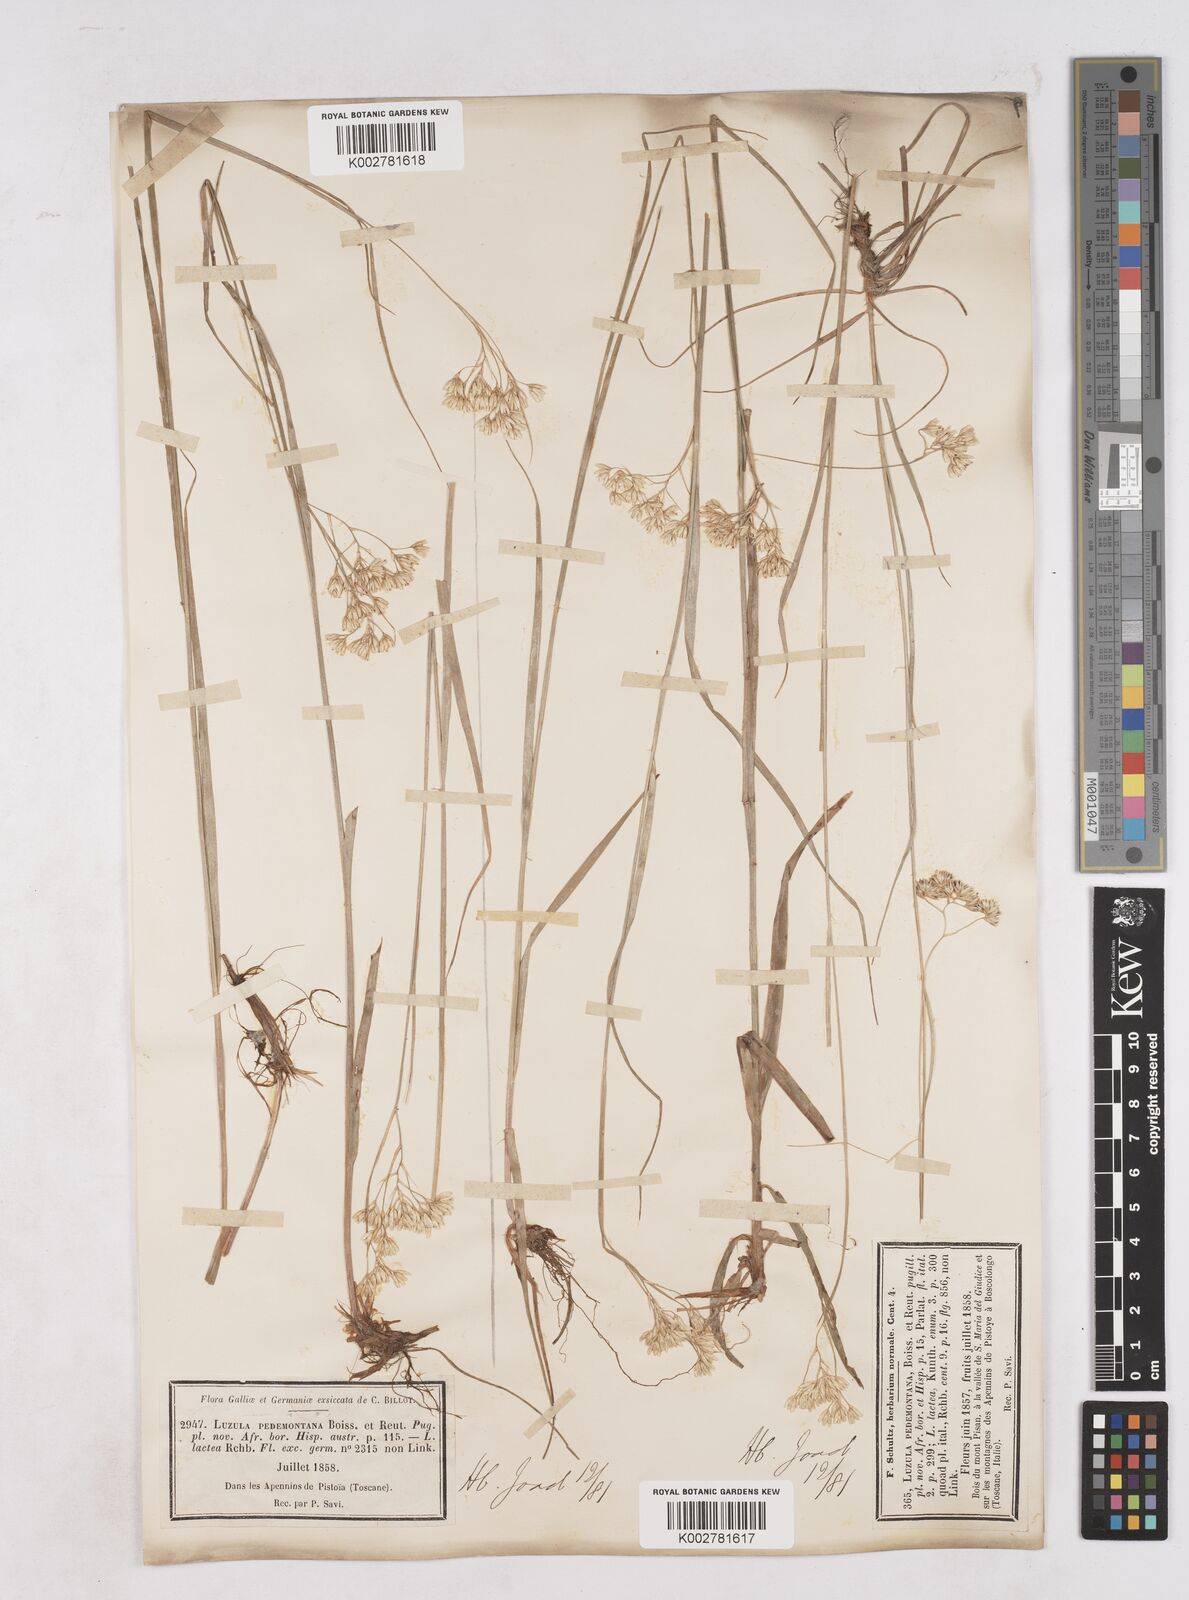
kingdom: Plantae
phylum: Tracheophyta
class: Liliopsida
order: Poales
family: Juncaceae
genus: Luzula
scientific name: Luzula pedemontana
